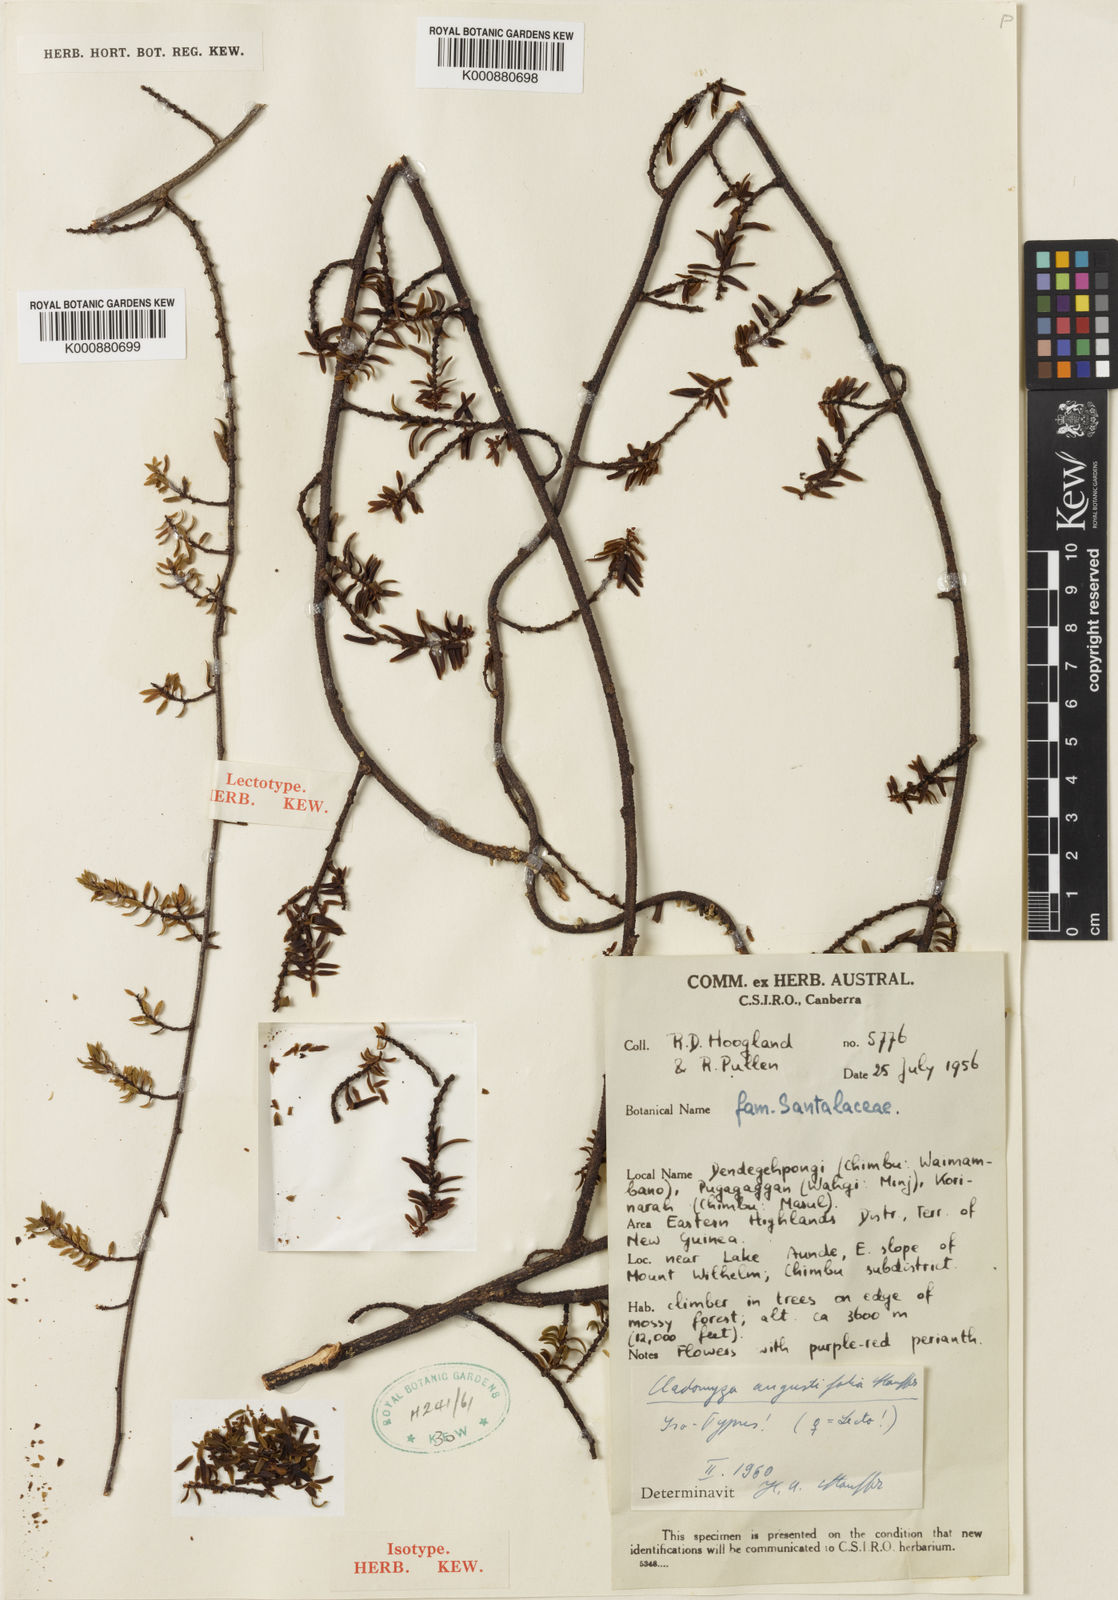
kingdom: Plantae
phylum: Tracheophyta
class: Magnoliopsida
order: Santalales
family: Amphorogynaceae
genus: Cladomyza
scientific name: Cladomyza angustifolia
